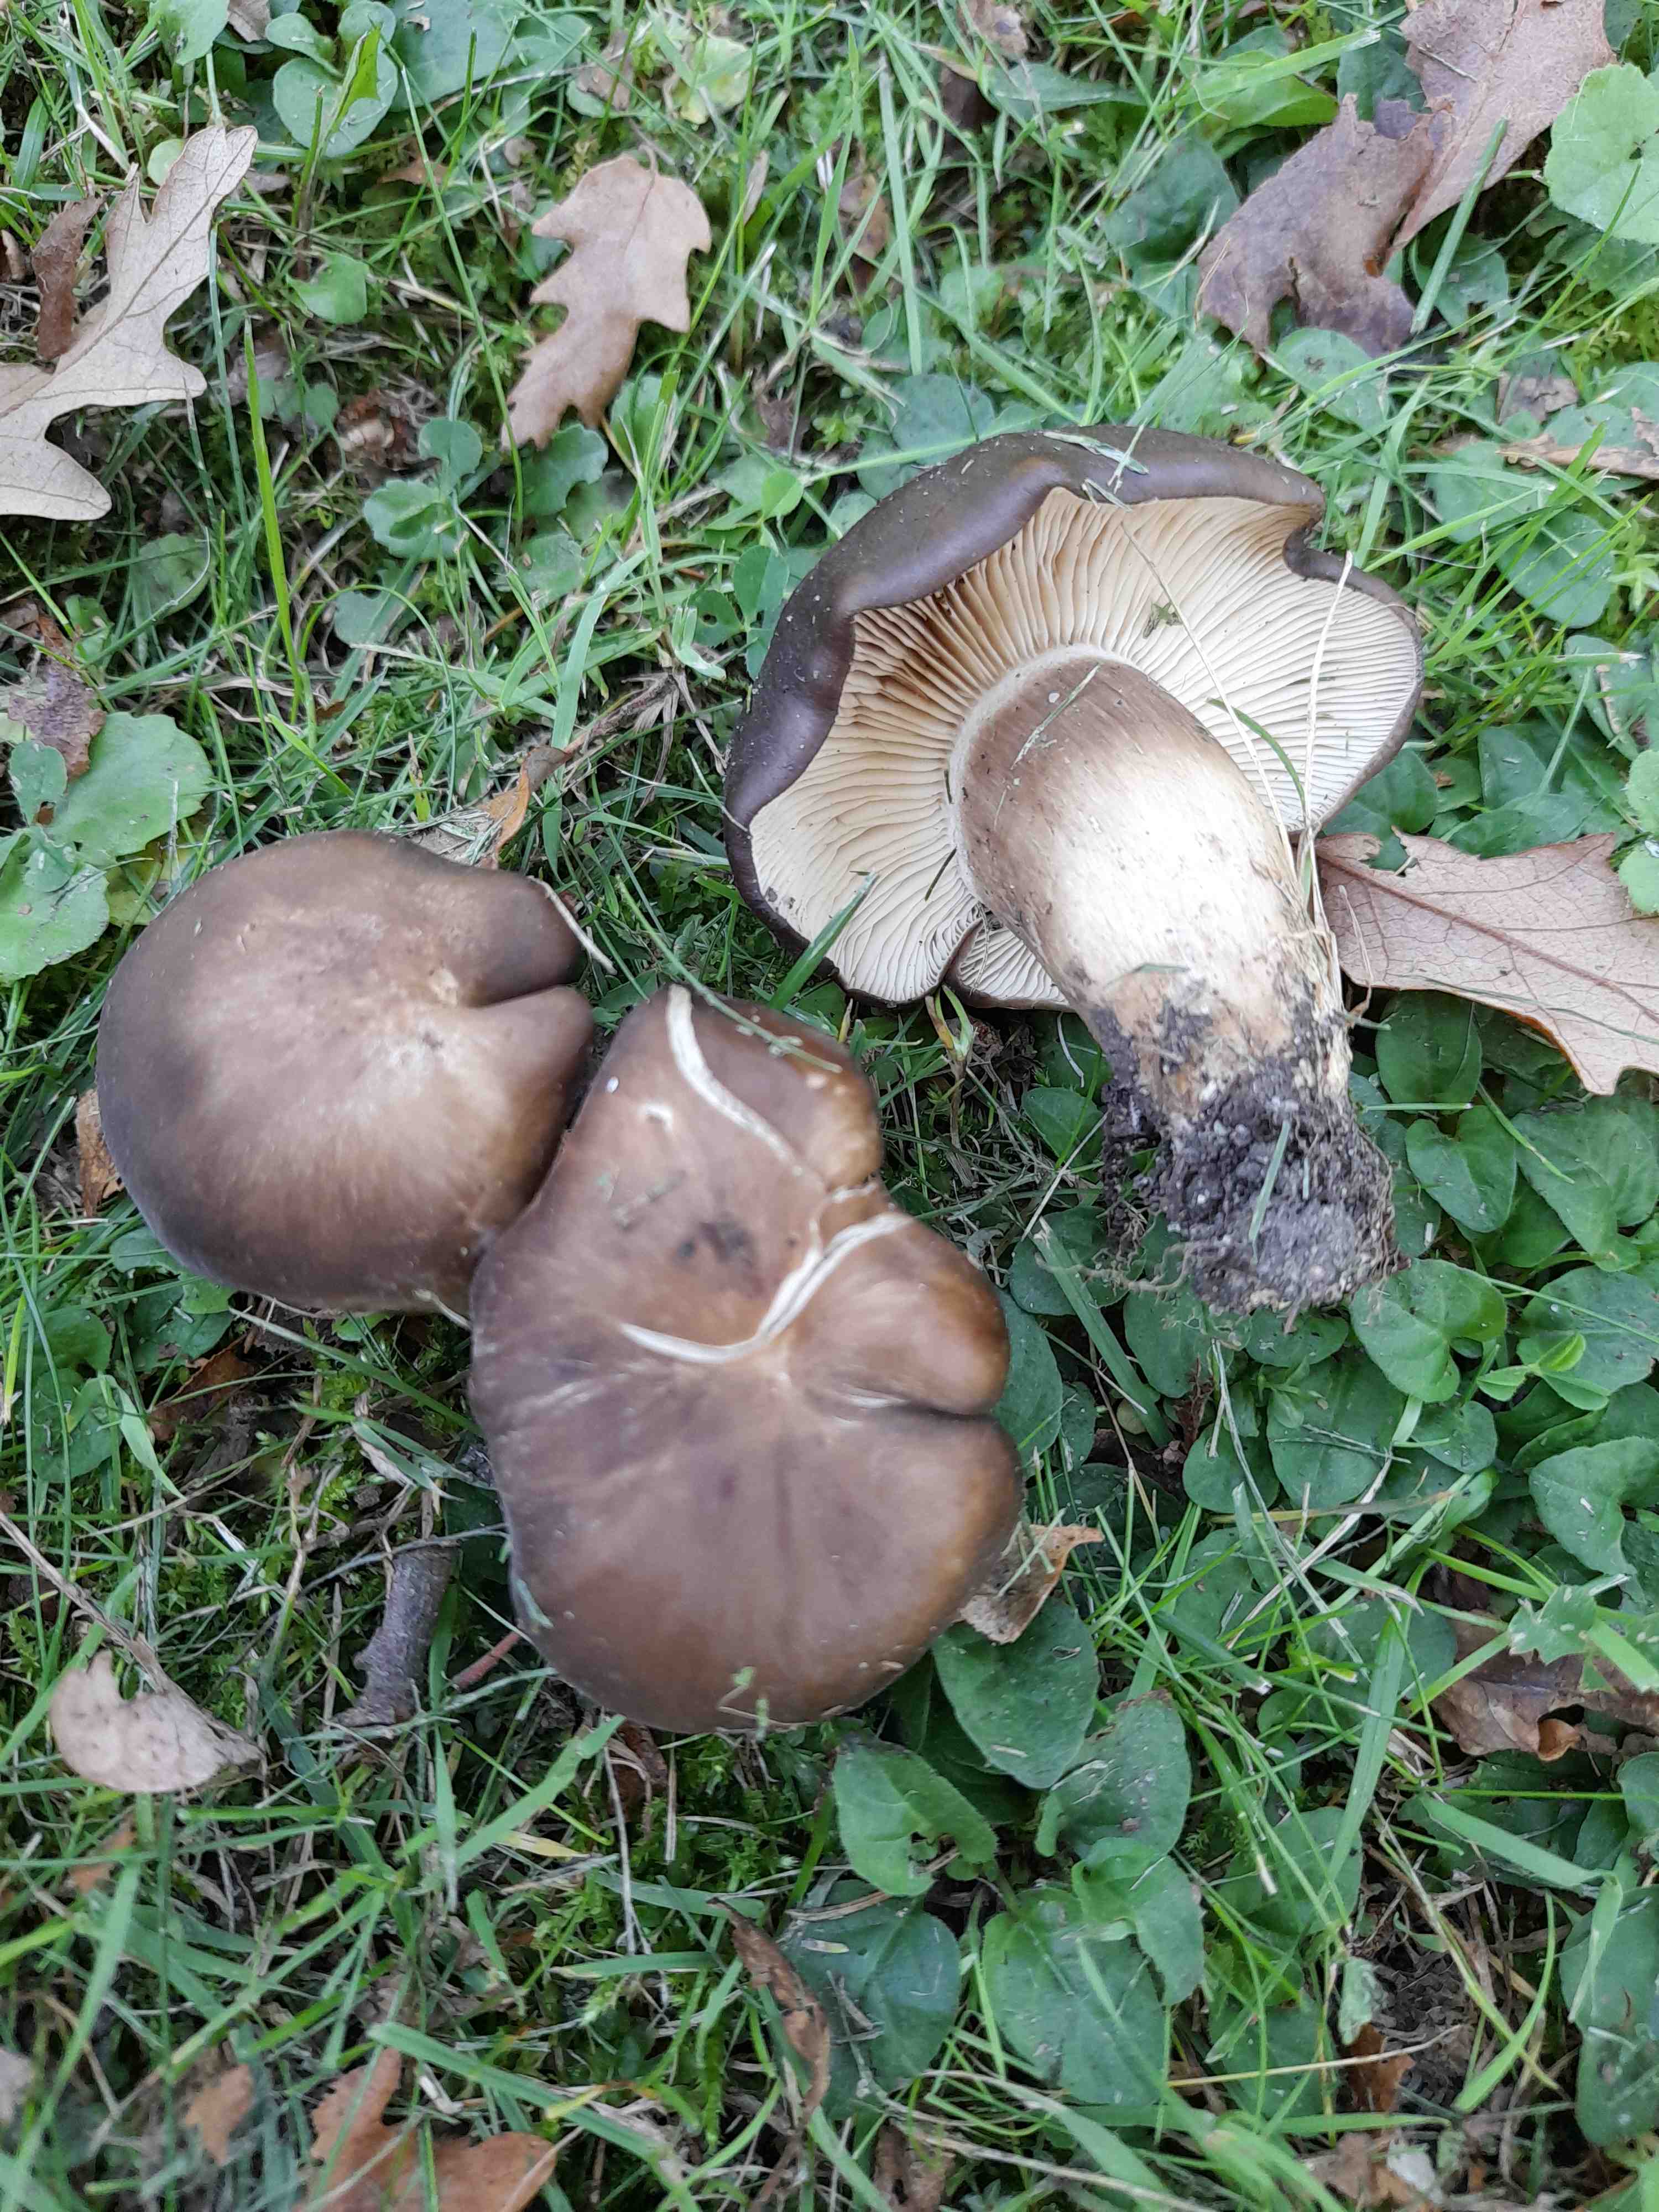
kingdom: Fungi
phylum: Basidiomycota
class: Agaricomycetes
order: Agaricales
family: Lyophyllaceae
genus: Lyophyllum
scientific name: Lyophyllum decastes
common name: Clustered domecap
